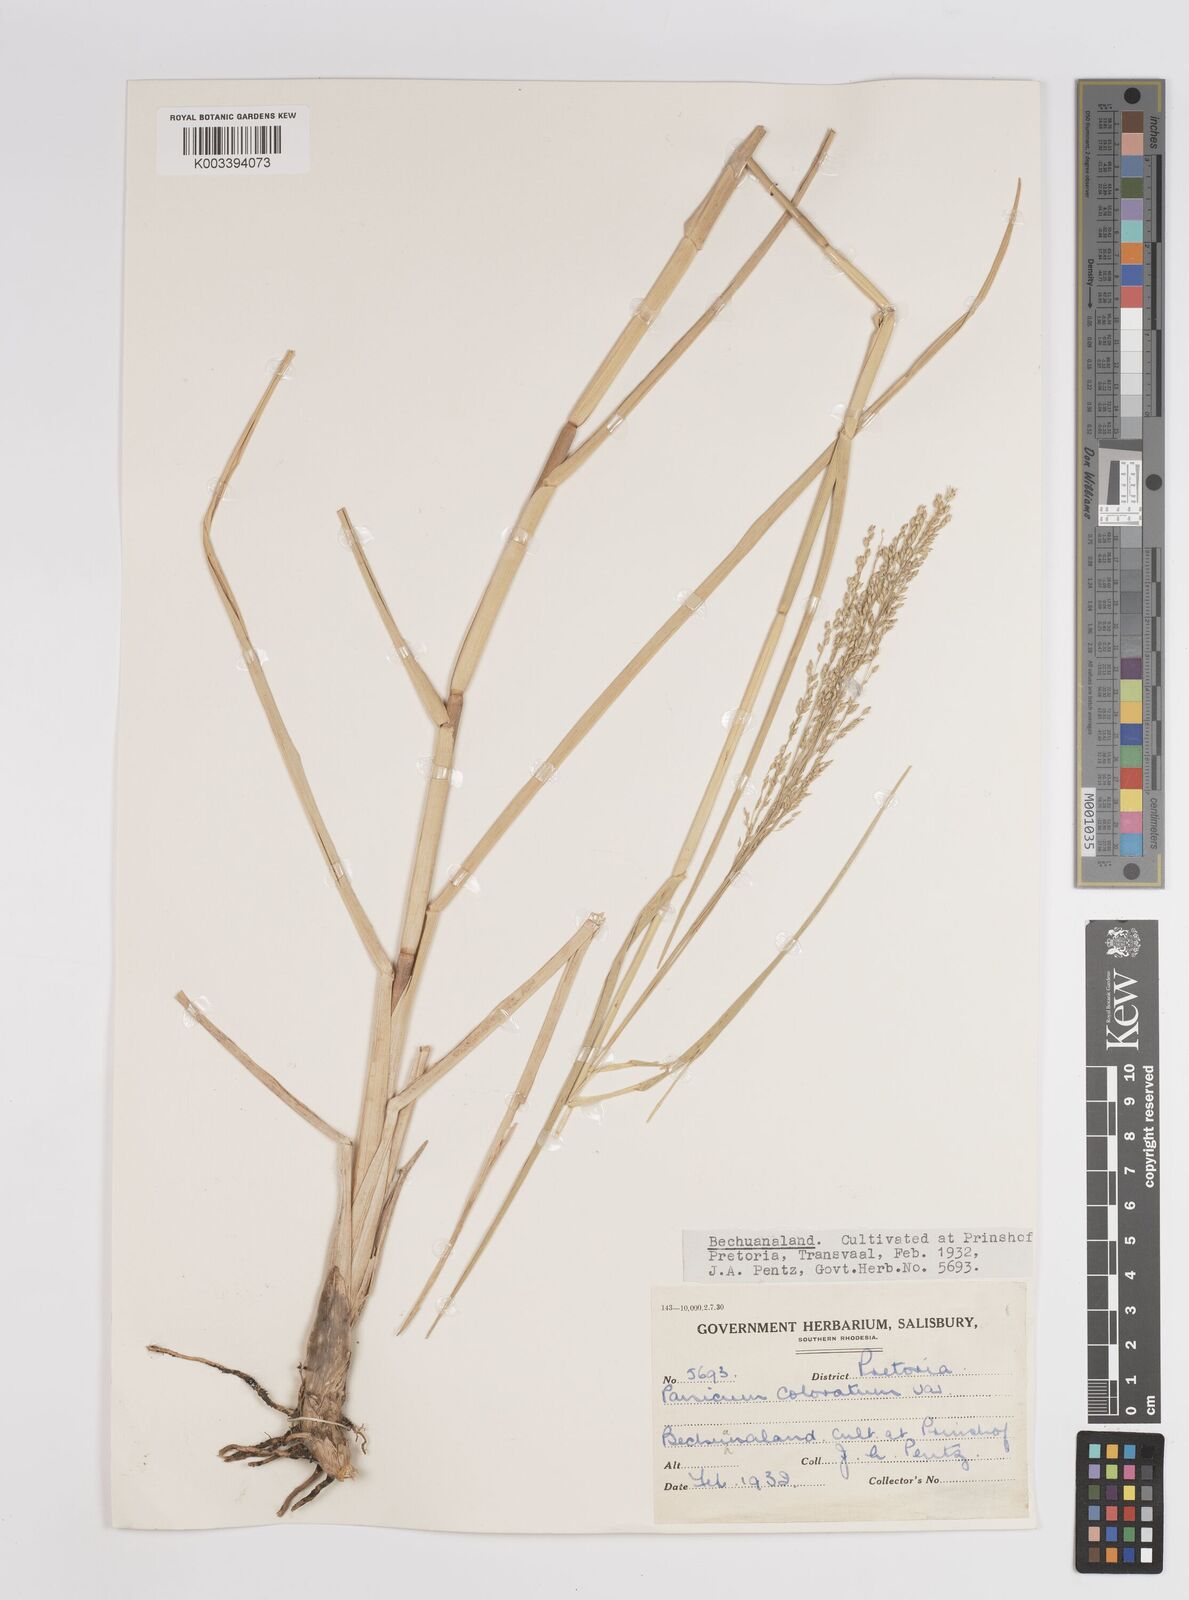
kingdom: Plantae
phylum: Tracheophyta
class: Liliopsida
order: Poales
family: Poaceae
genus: Panicum
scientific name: Panicum coloratum
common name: Kleingrass
